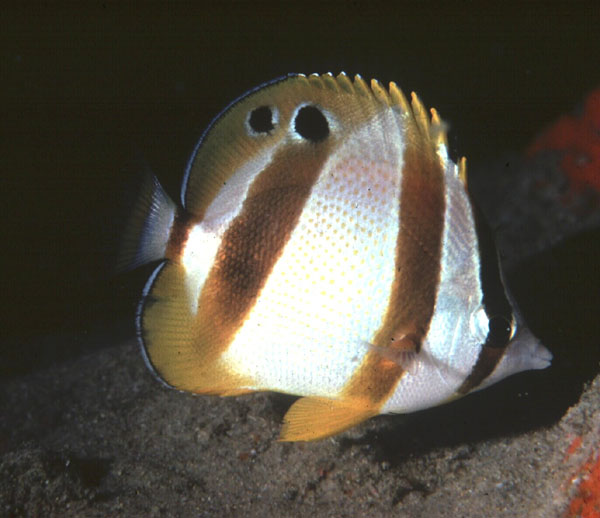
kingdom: Animalia
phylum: Chordata
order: Perciformes
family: Chaetodontidae
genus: Chaetodon
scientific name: Chaetodon marleyi
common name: Doubledash butterflyfish
